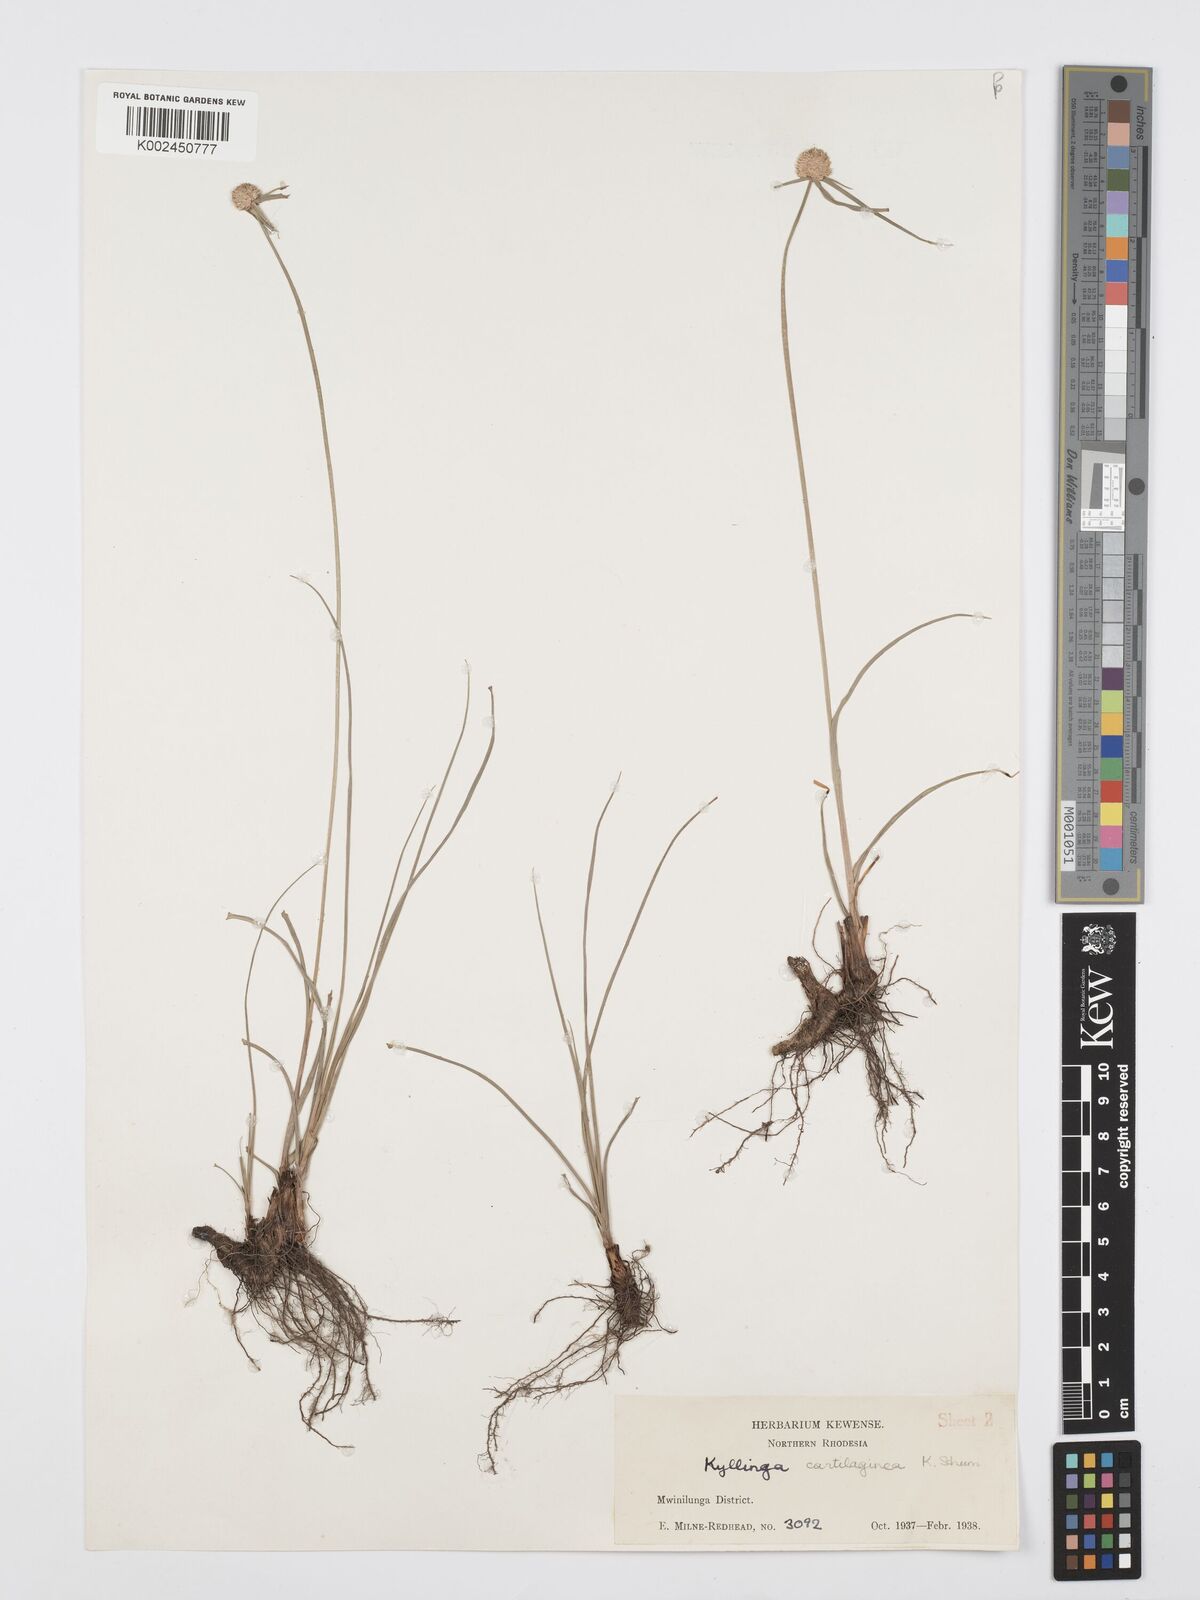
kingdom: Plantae
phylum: Tracheophyta
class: Liliopsida
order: Poales
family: Cyperaceae
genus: Cyperus
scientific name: Cyperus rukwanus
